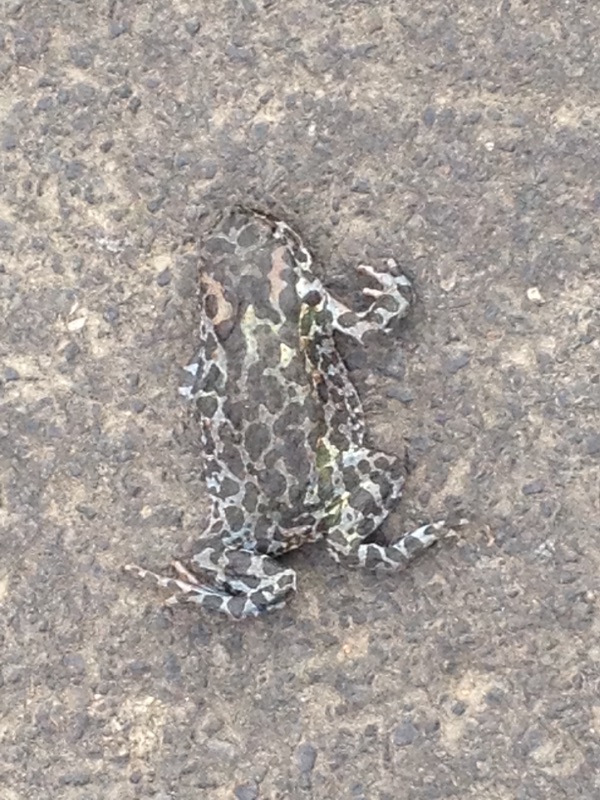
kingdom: Animalia
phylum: Chordata
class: Amphibia
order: Anura
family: Bufonidae
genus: Bufotes
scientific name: Bufotes viridis
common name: European green toad
